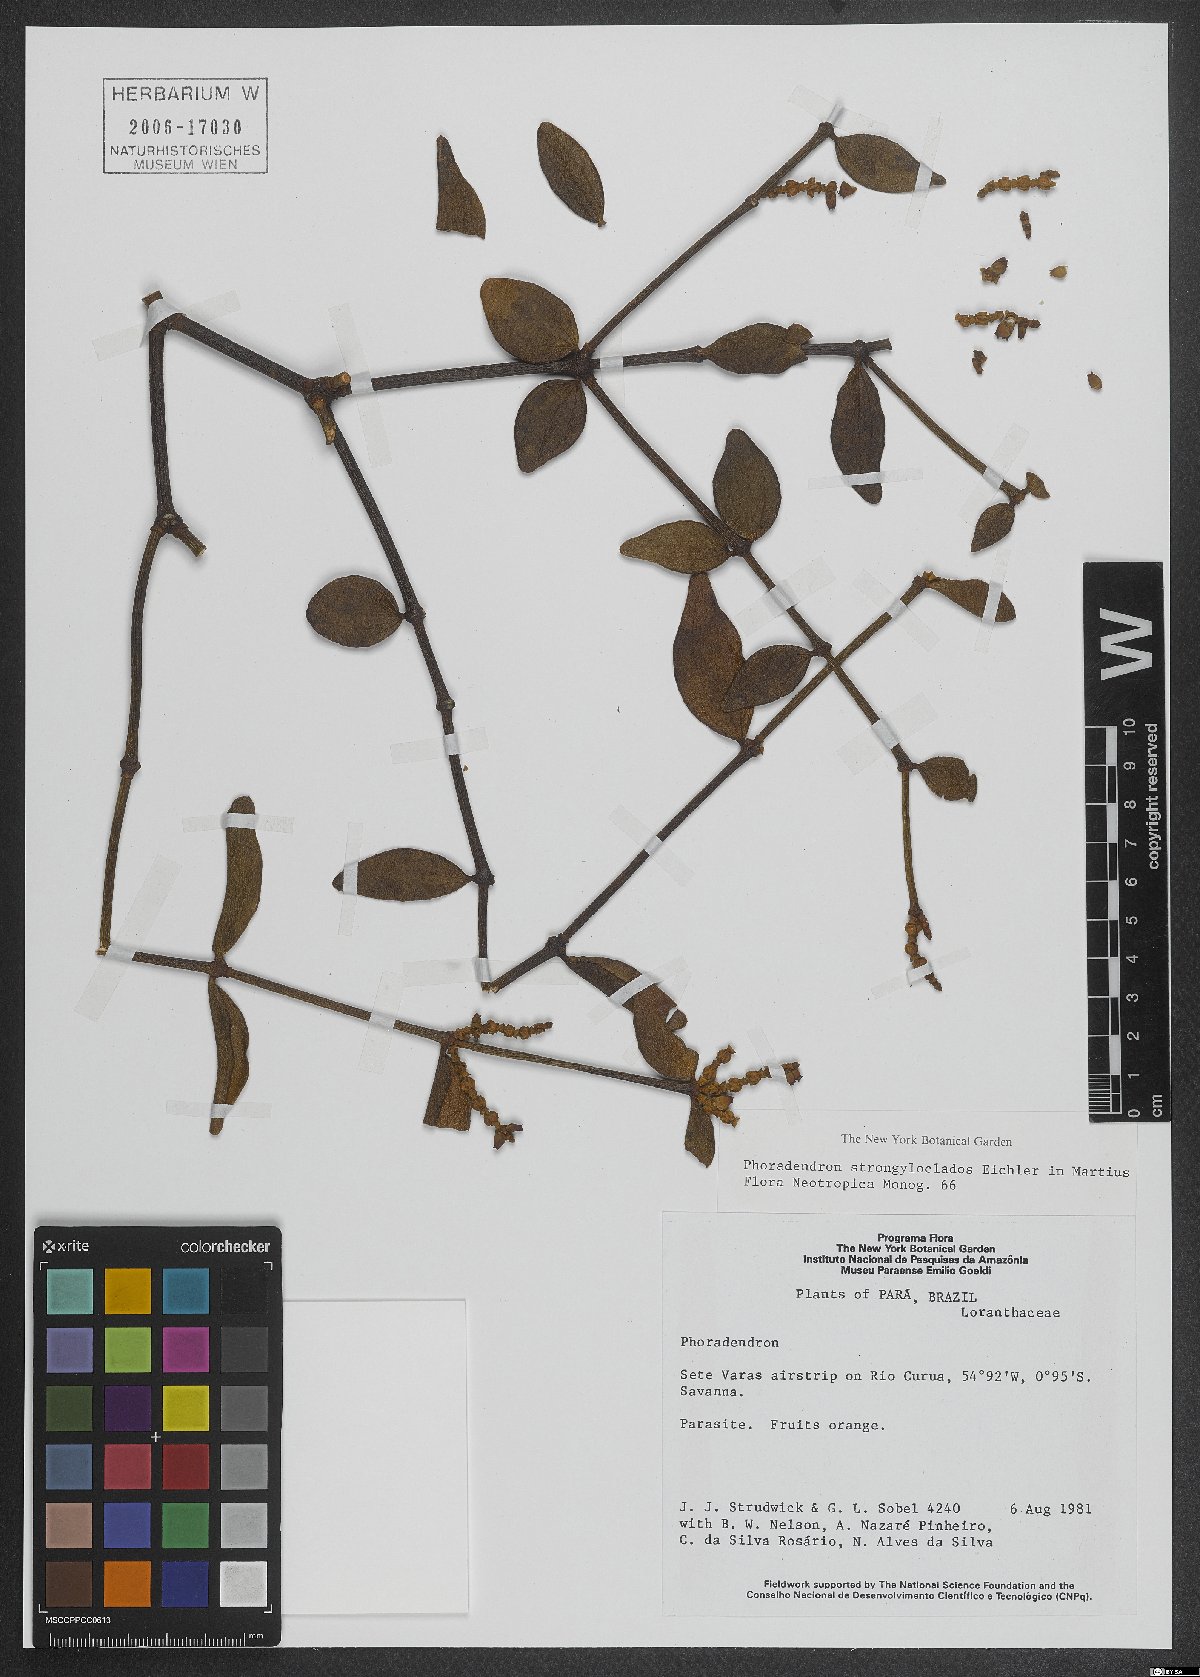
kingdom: Plantae
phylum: Tracheophyta
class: Magnoliopsida
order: Santalales
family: Viscaceae
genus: Phoradendron
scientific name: Phoradendron strongyloclados
